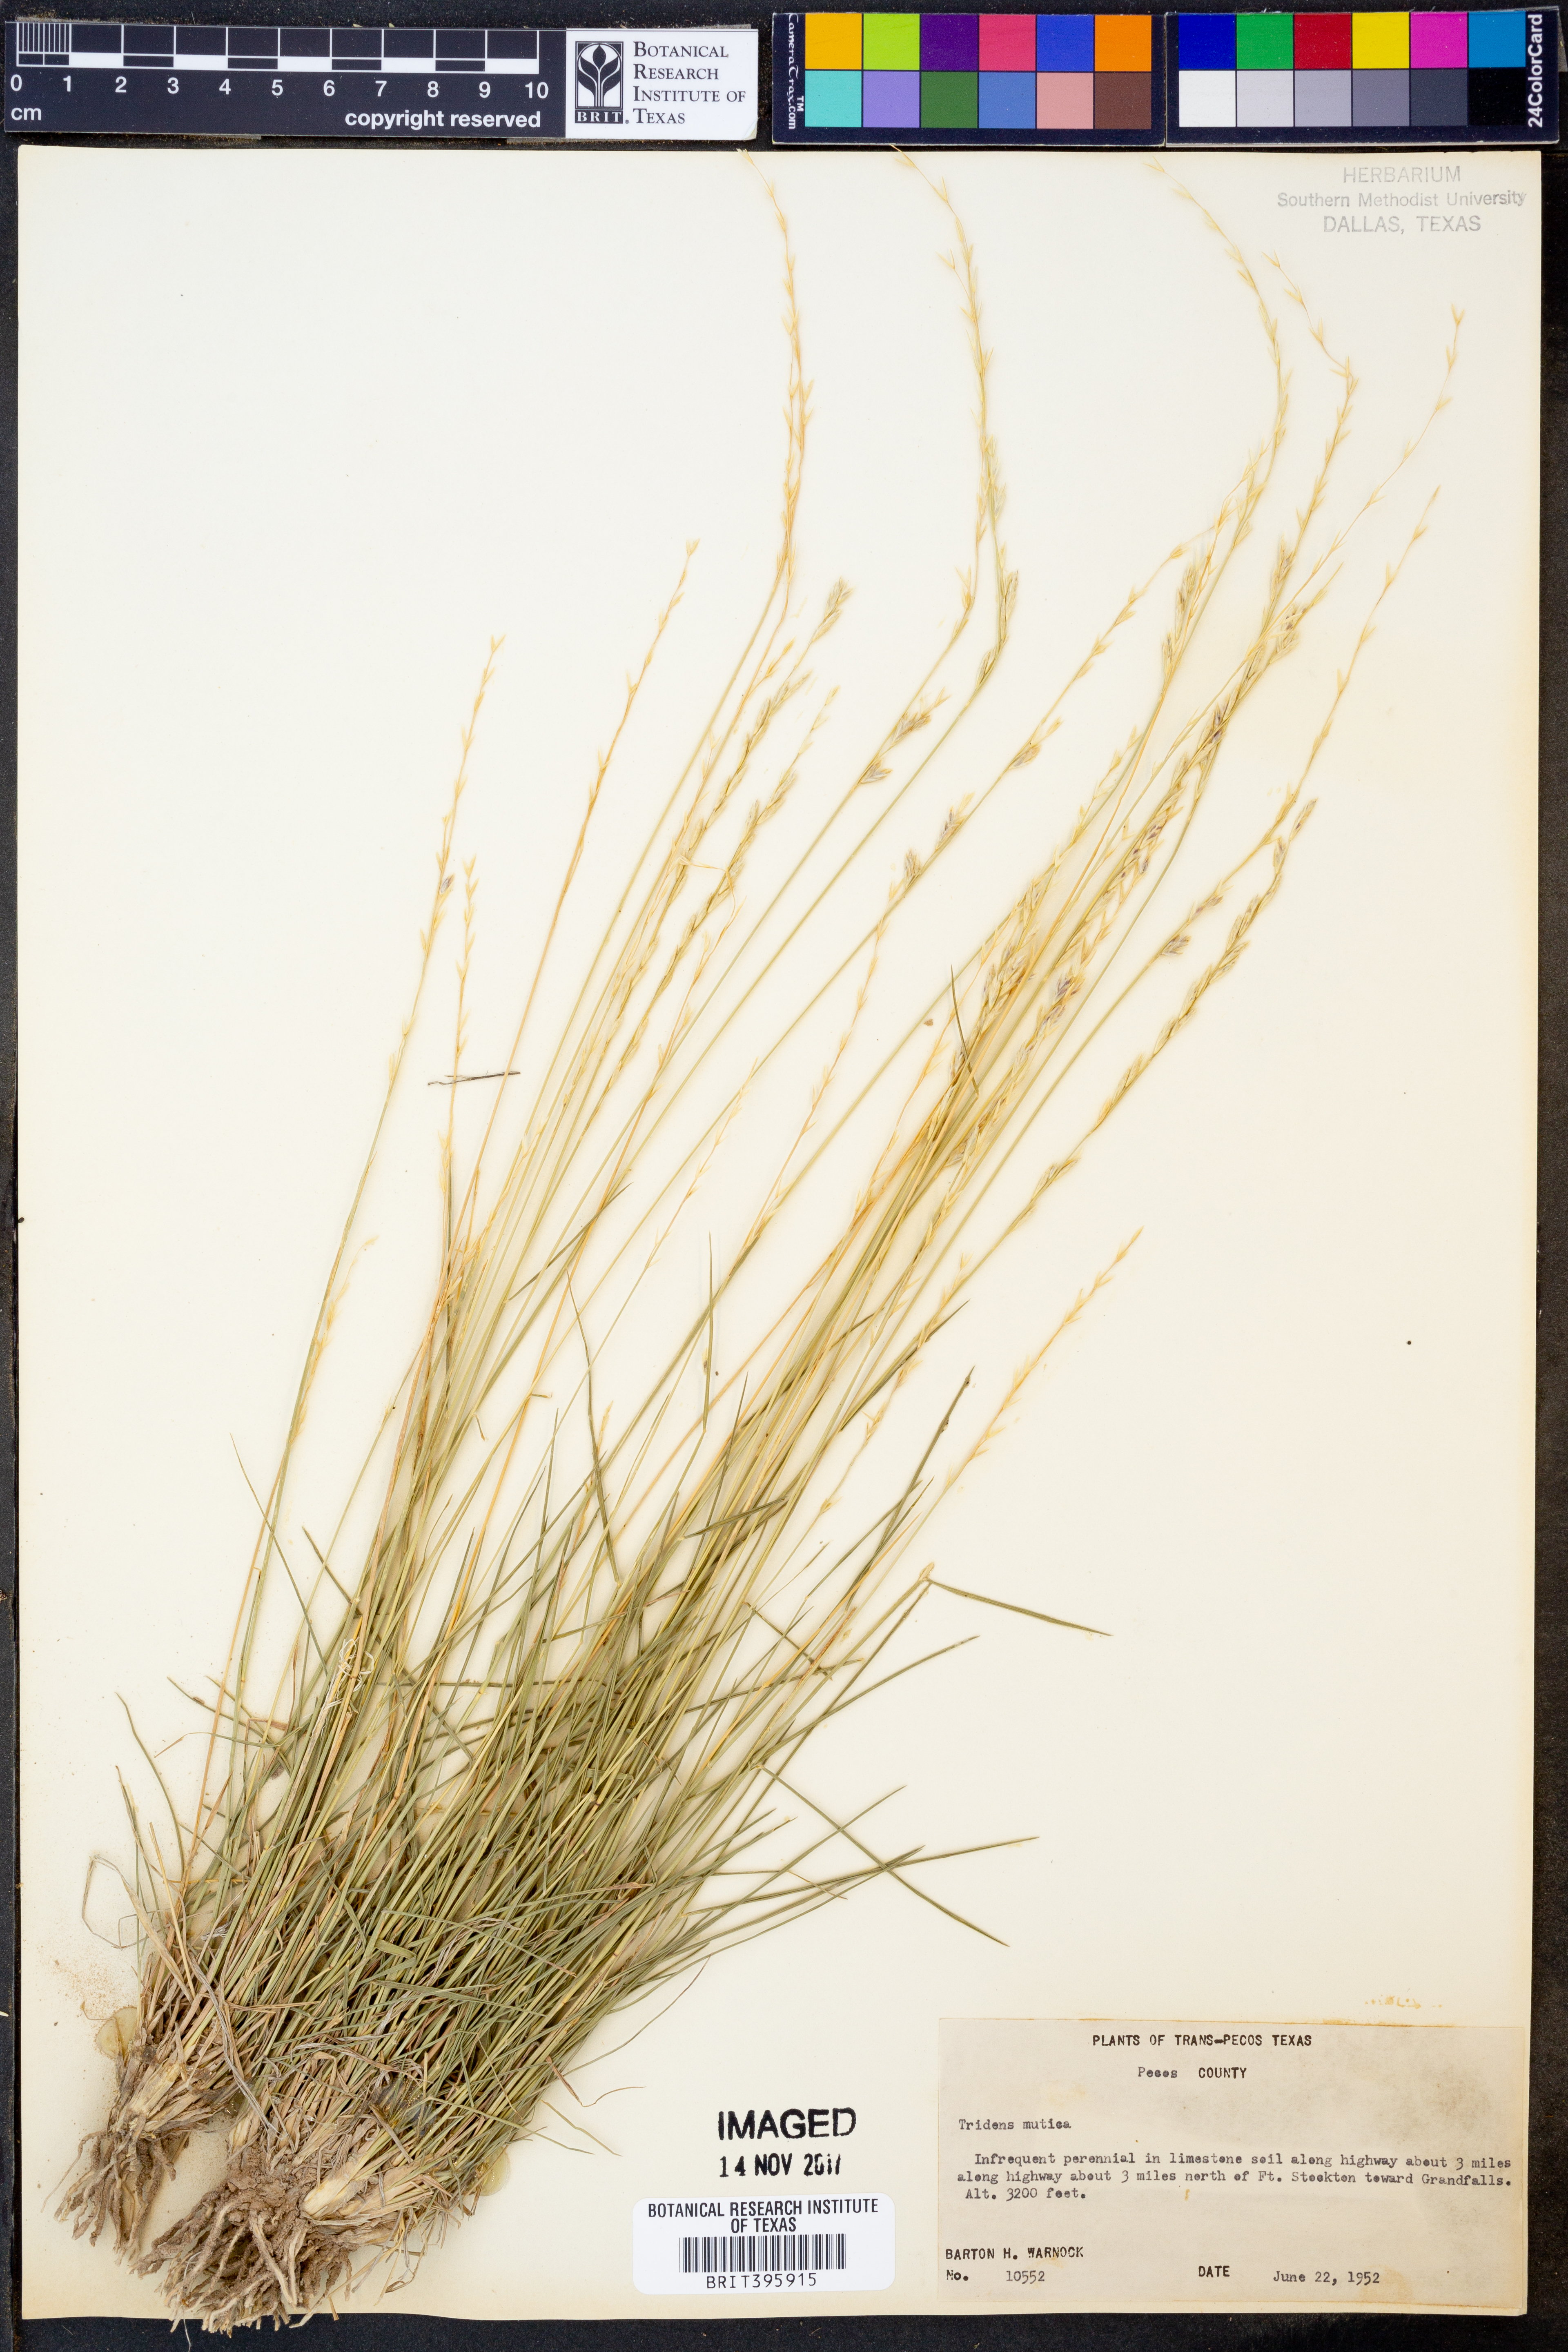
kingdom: Plantae
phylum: Tracheophyta
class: Liliopsida
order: Poales
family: Poaceae
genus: Tridentopsis
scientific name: Tridentopsis mutica
